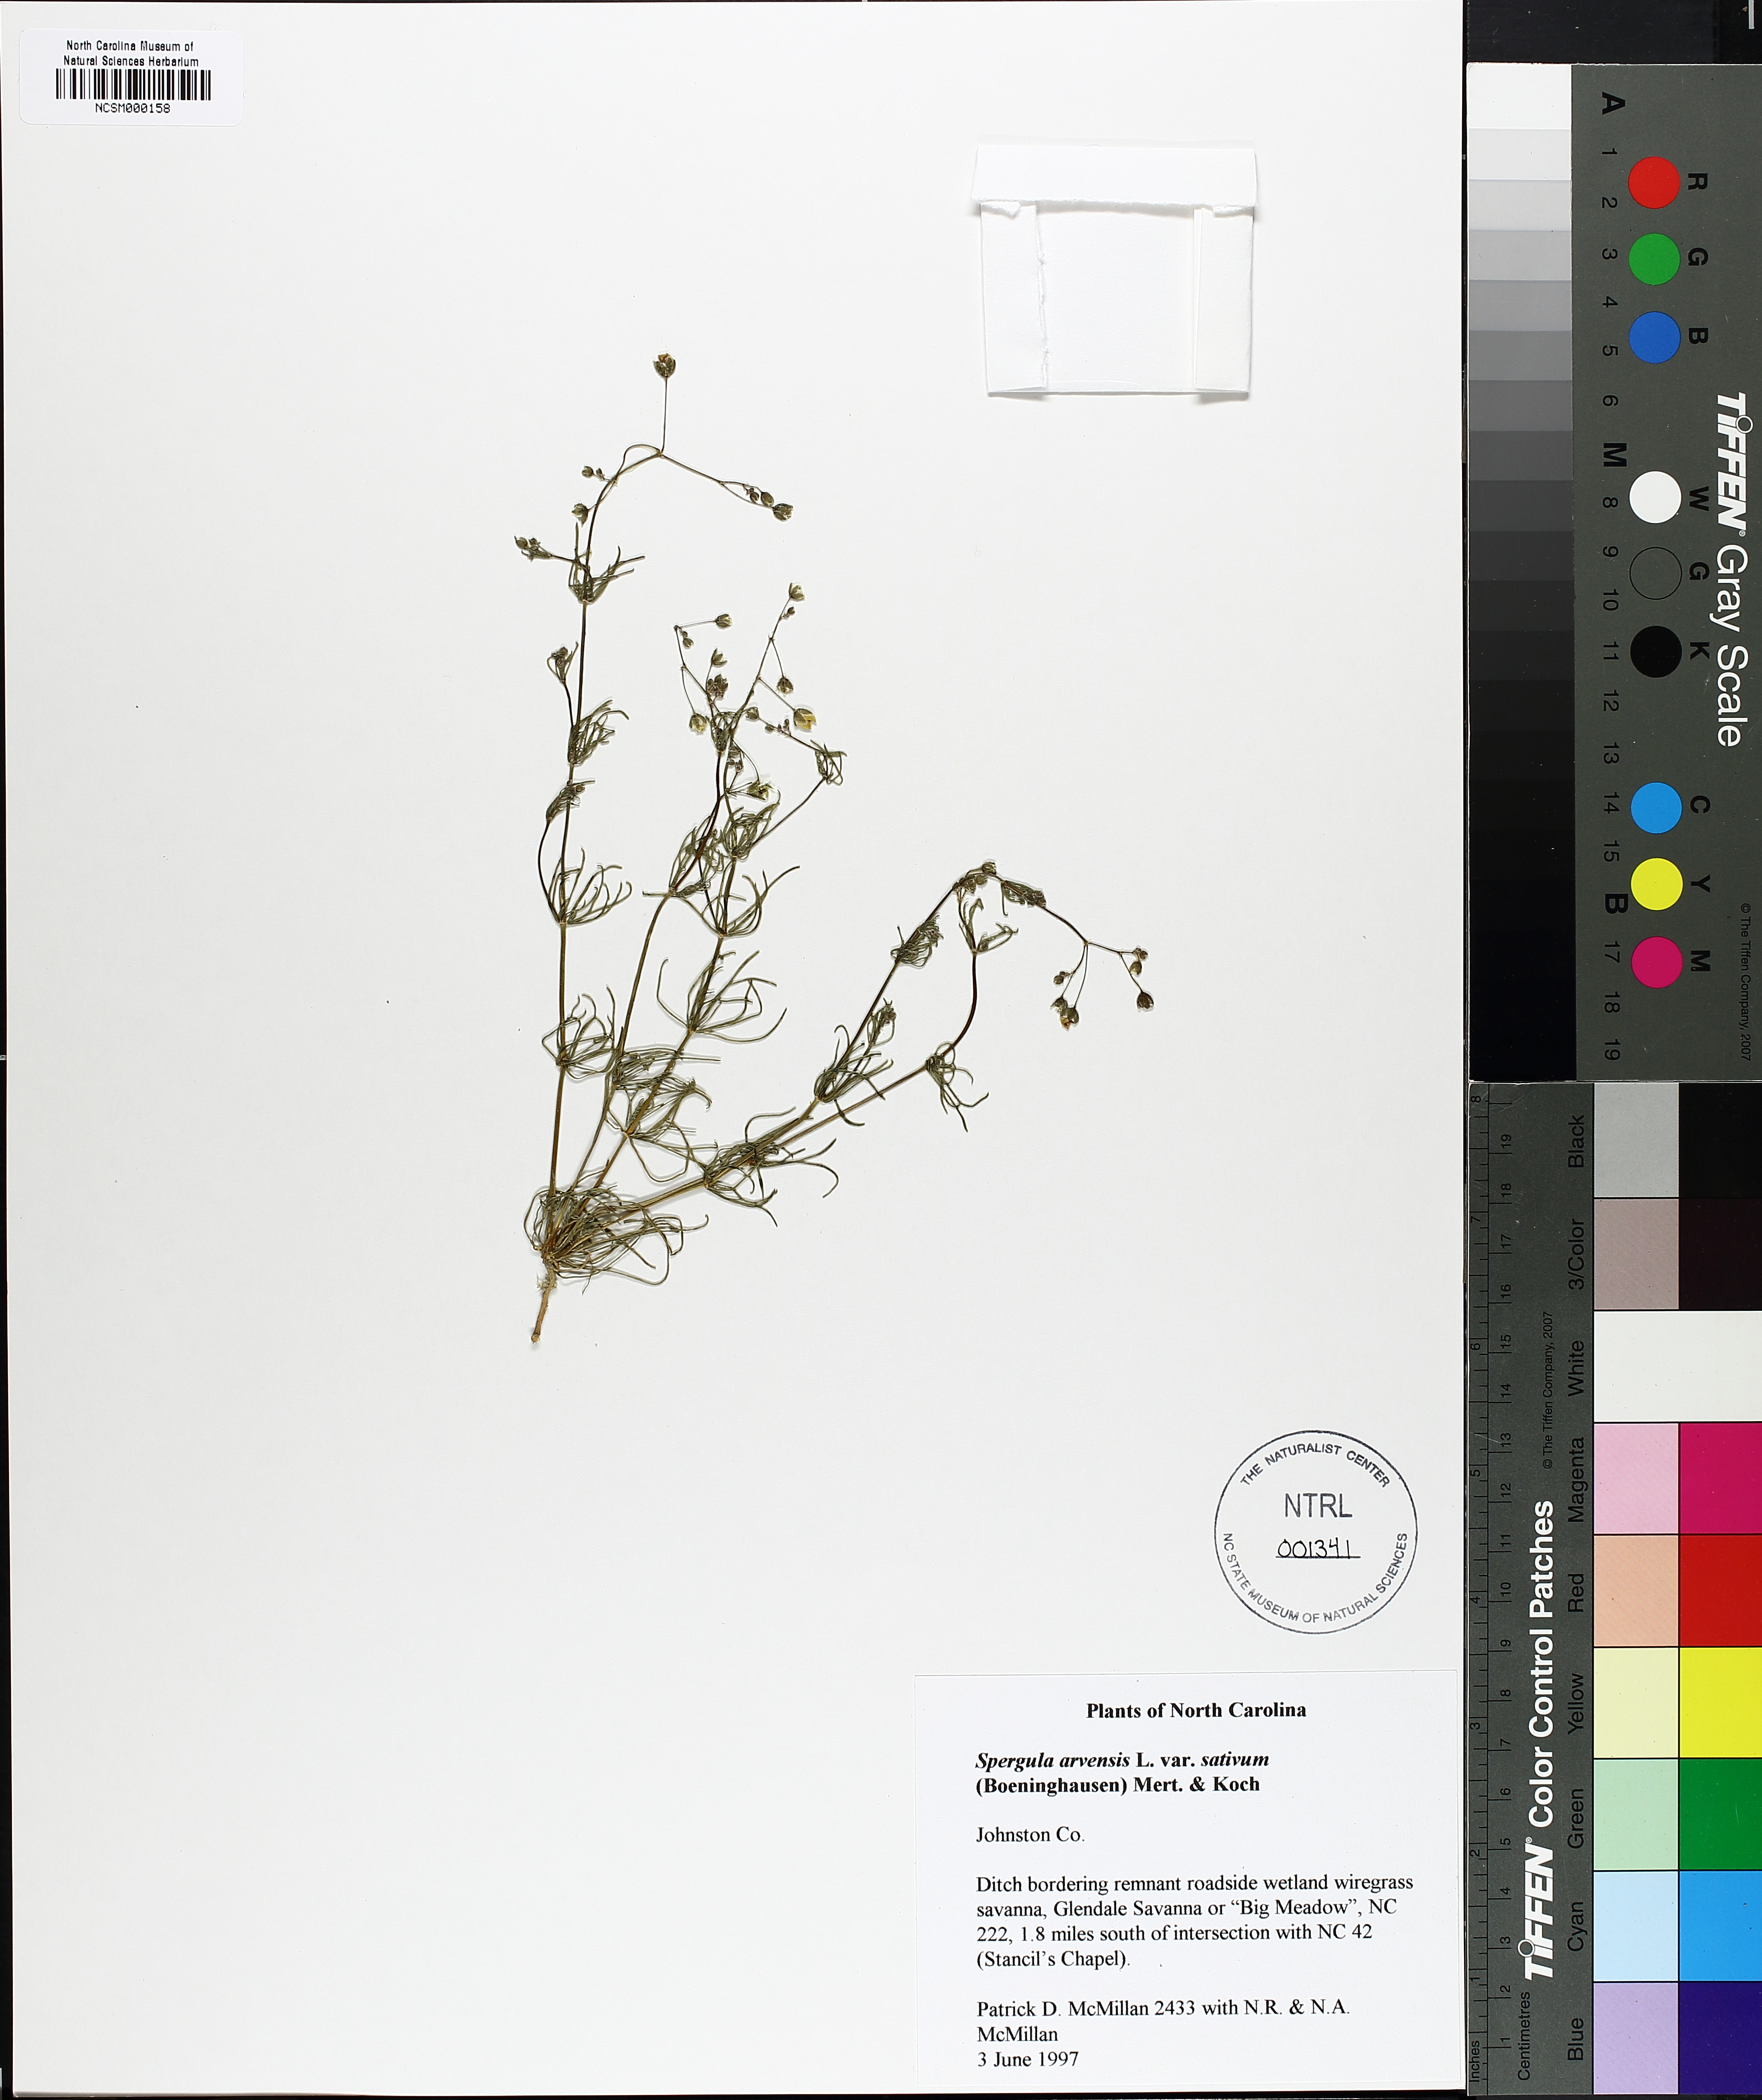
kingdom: Plantae
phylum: Tracheophyta
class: Magnoliopsida
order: Caryophyllales
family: Caryophyllaceae
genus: Spergula
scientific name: Spergula arvensis
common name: Corn spurrey
